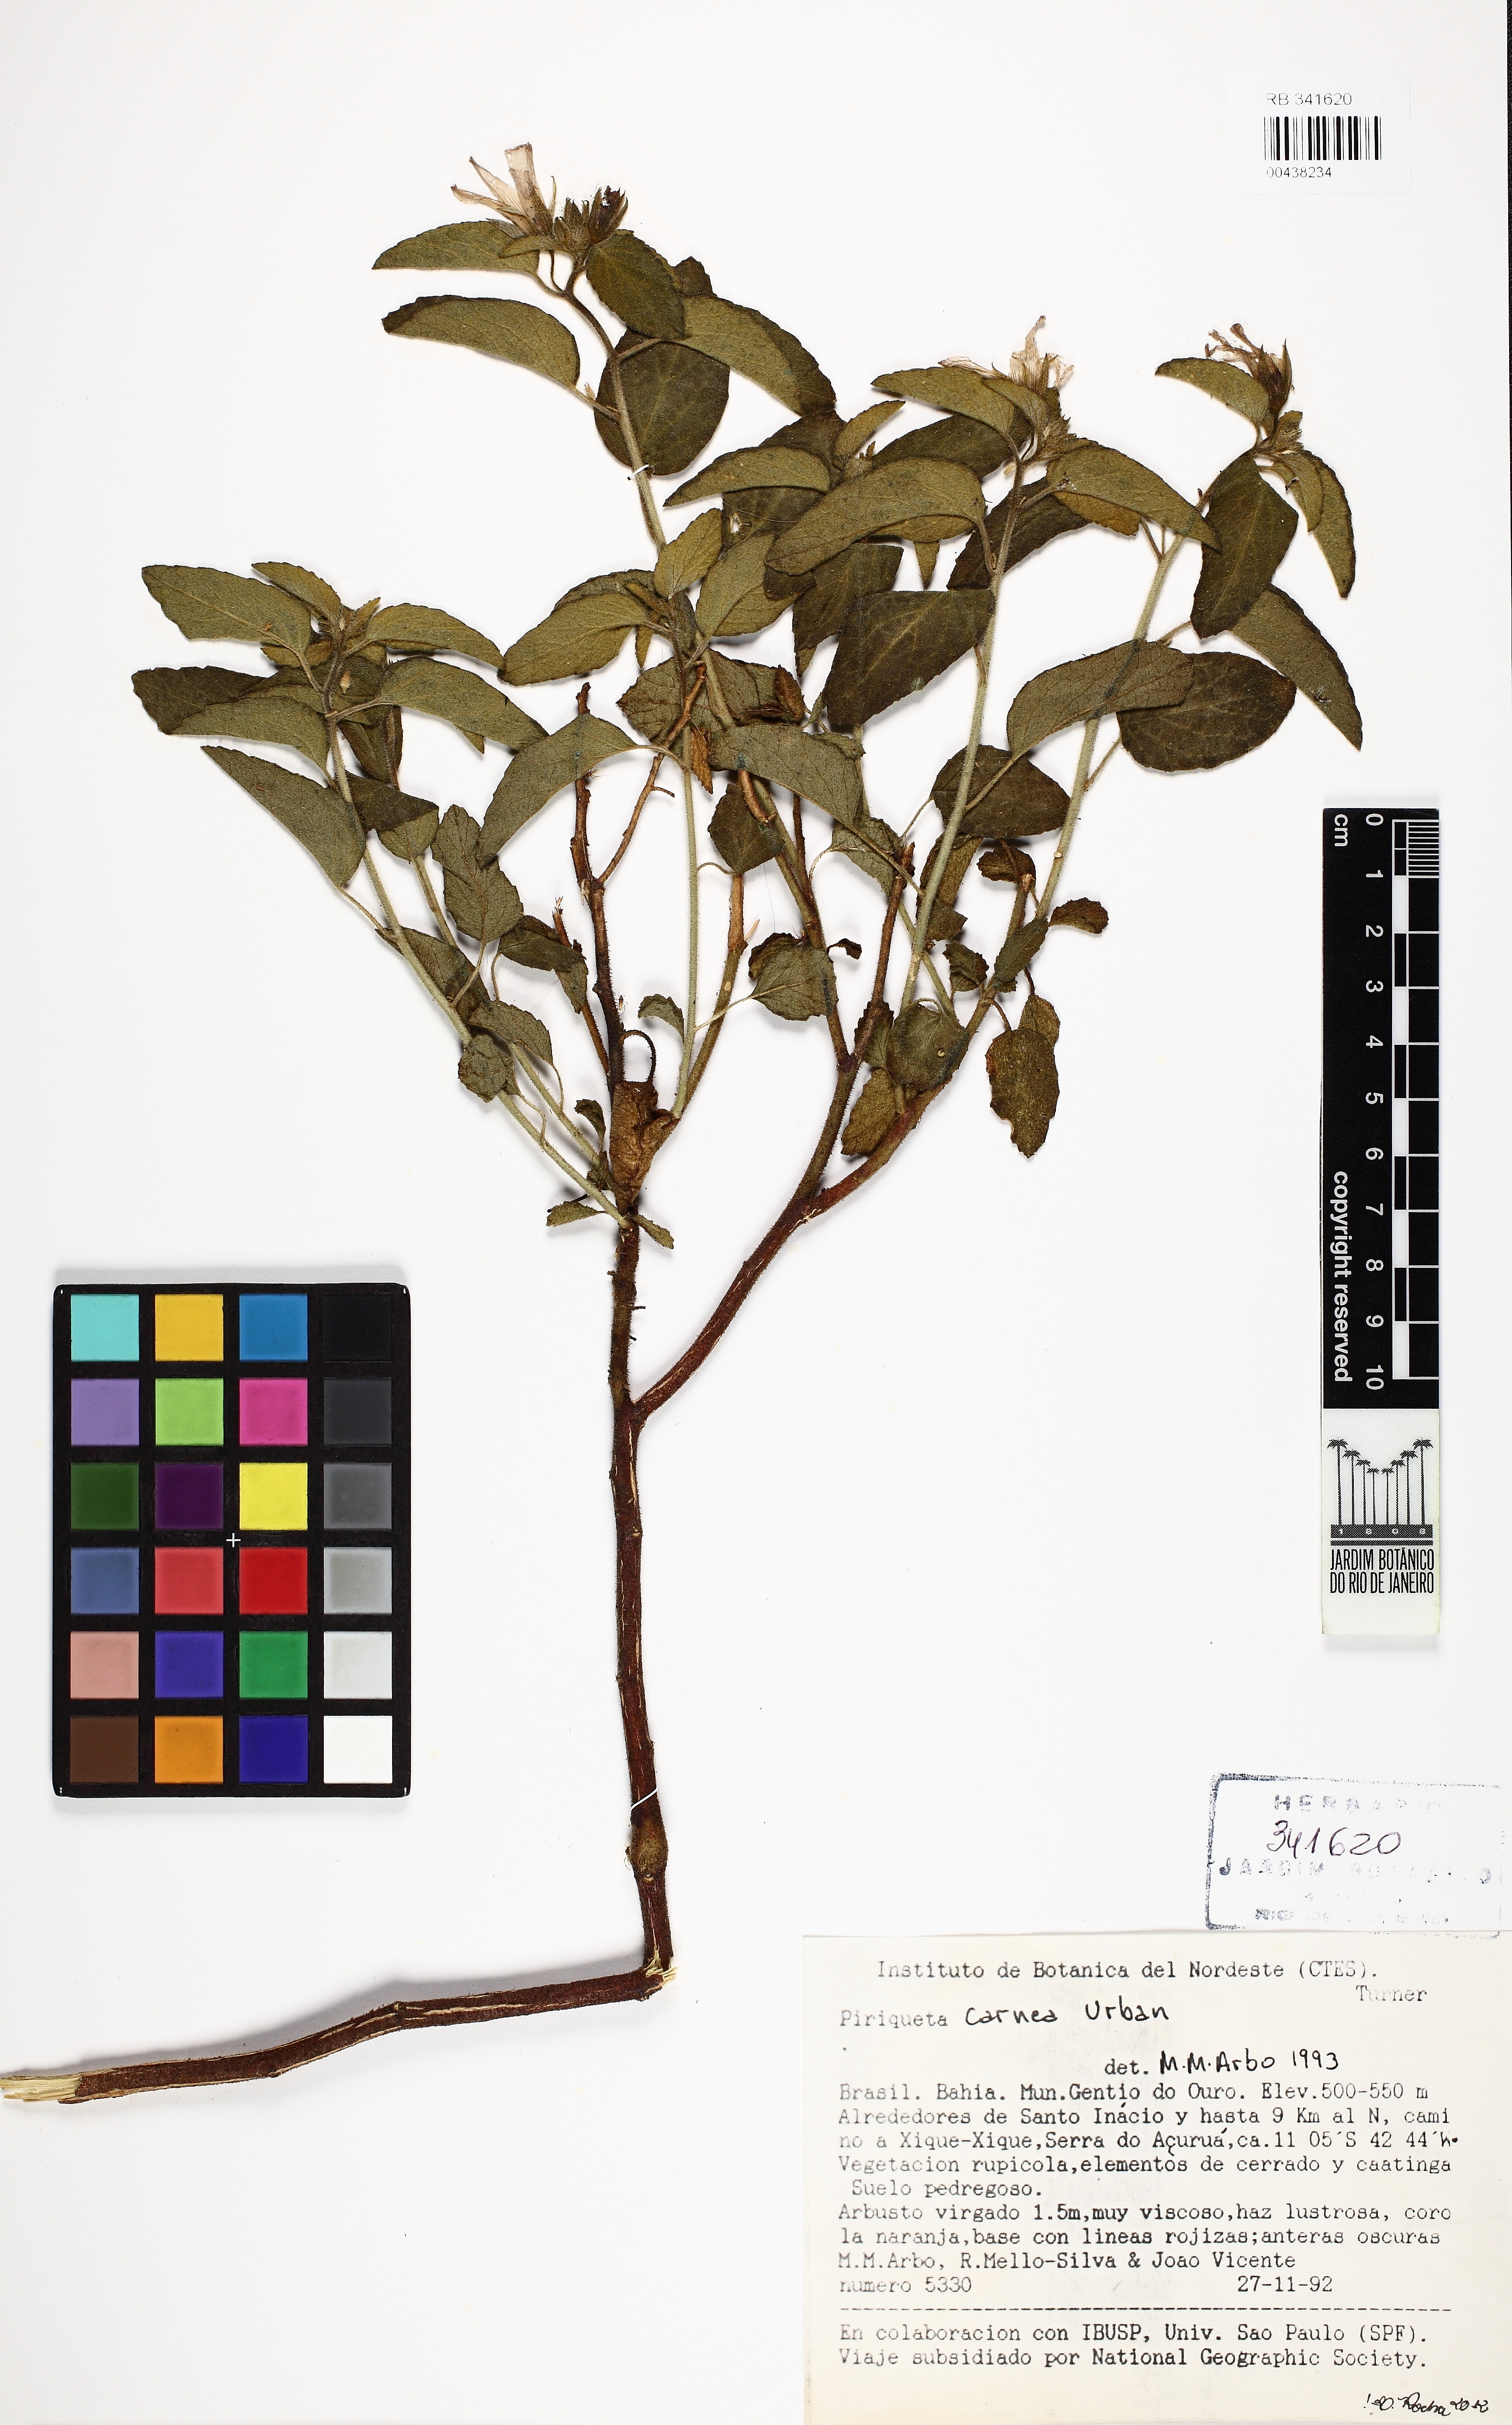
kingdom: Plantae
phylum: Tracheophyta
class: Magnoliopsida
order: Malpighiales
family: Turneraceae
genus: Piriqueta
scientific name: Piriqueta carnea
